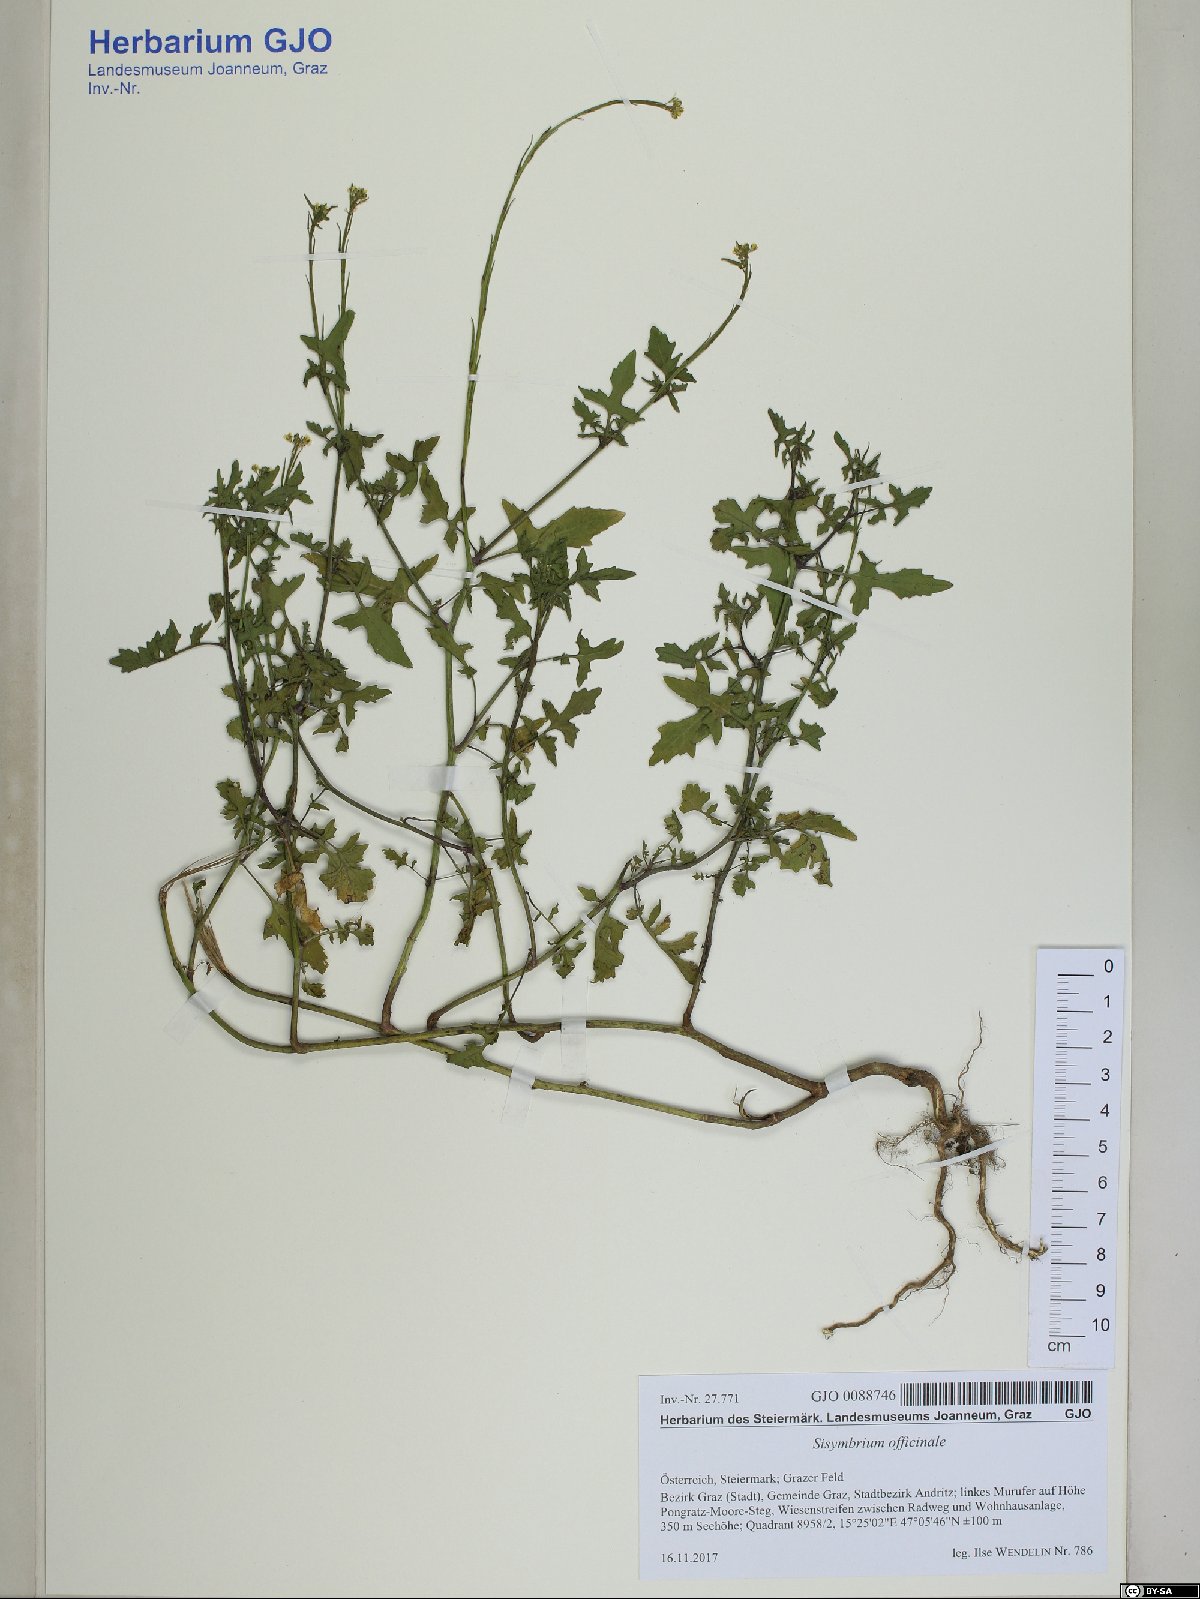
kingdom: Plantae
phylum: Tracheophyta
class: Magnoliopsida
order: Brassicales
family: Brassicaceae
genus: Sisymbrium
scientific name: Sisymbrium officinale
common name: Hedge mustard
